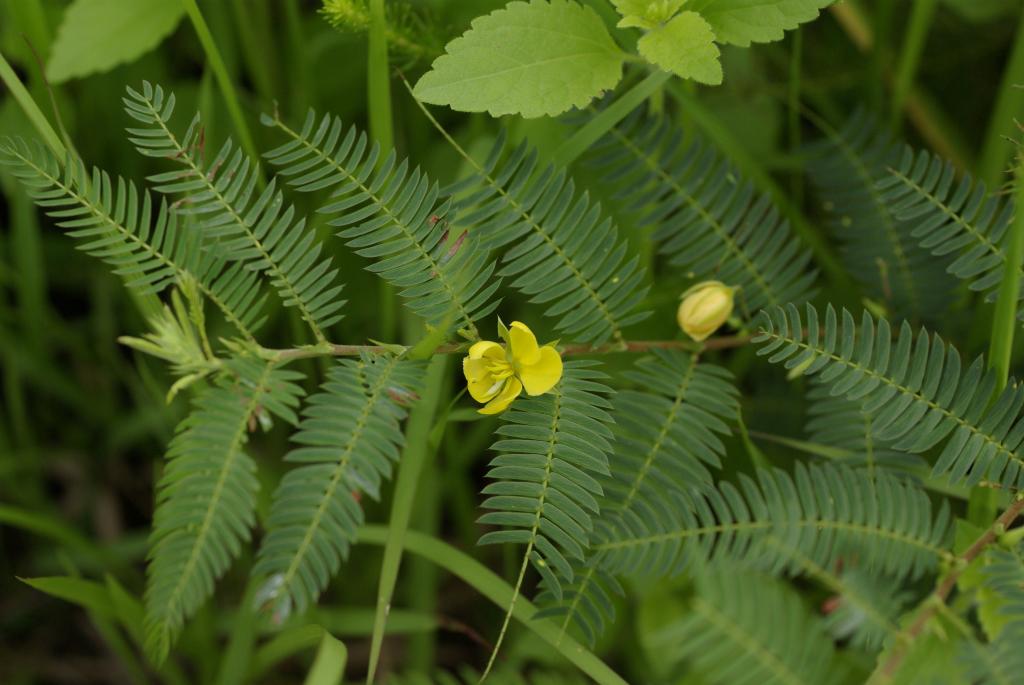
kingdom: Plantae
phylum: Tracheophyta
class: Magnoliopsida
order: Fabales
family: Fabaceae
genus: Chamaecrista
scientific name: Chamaecrista nictitans
